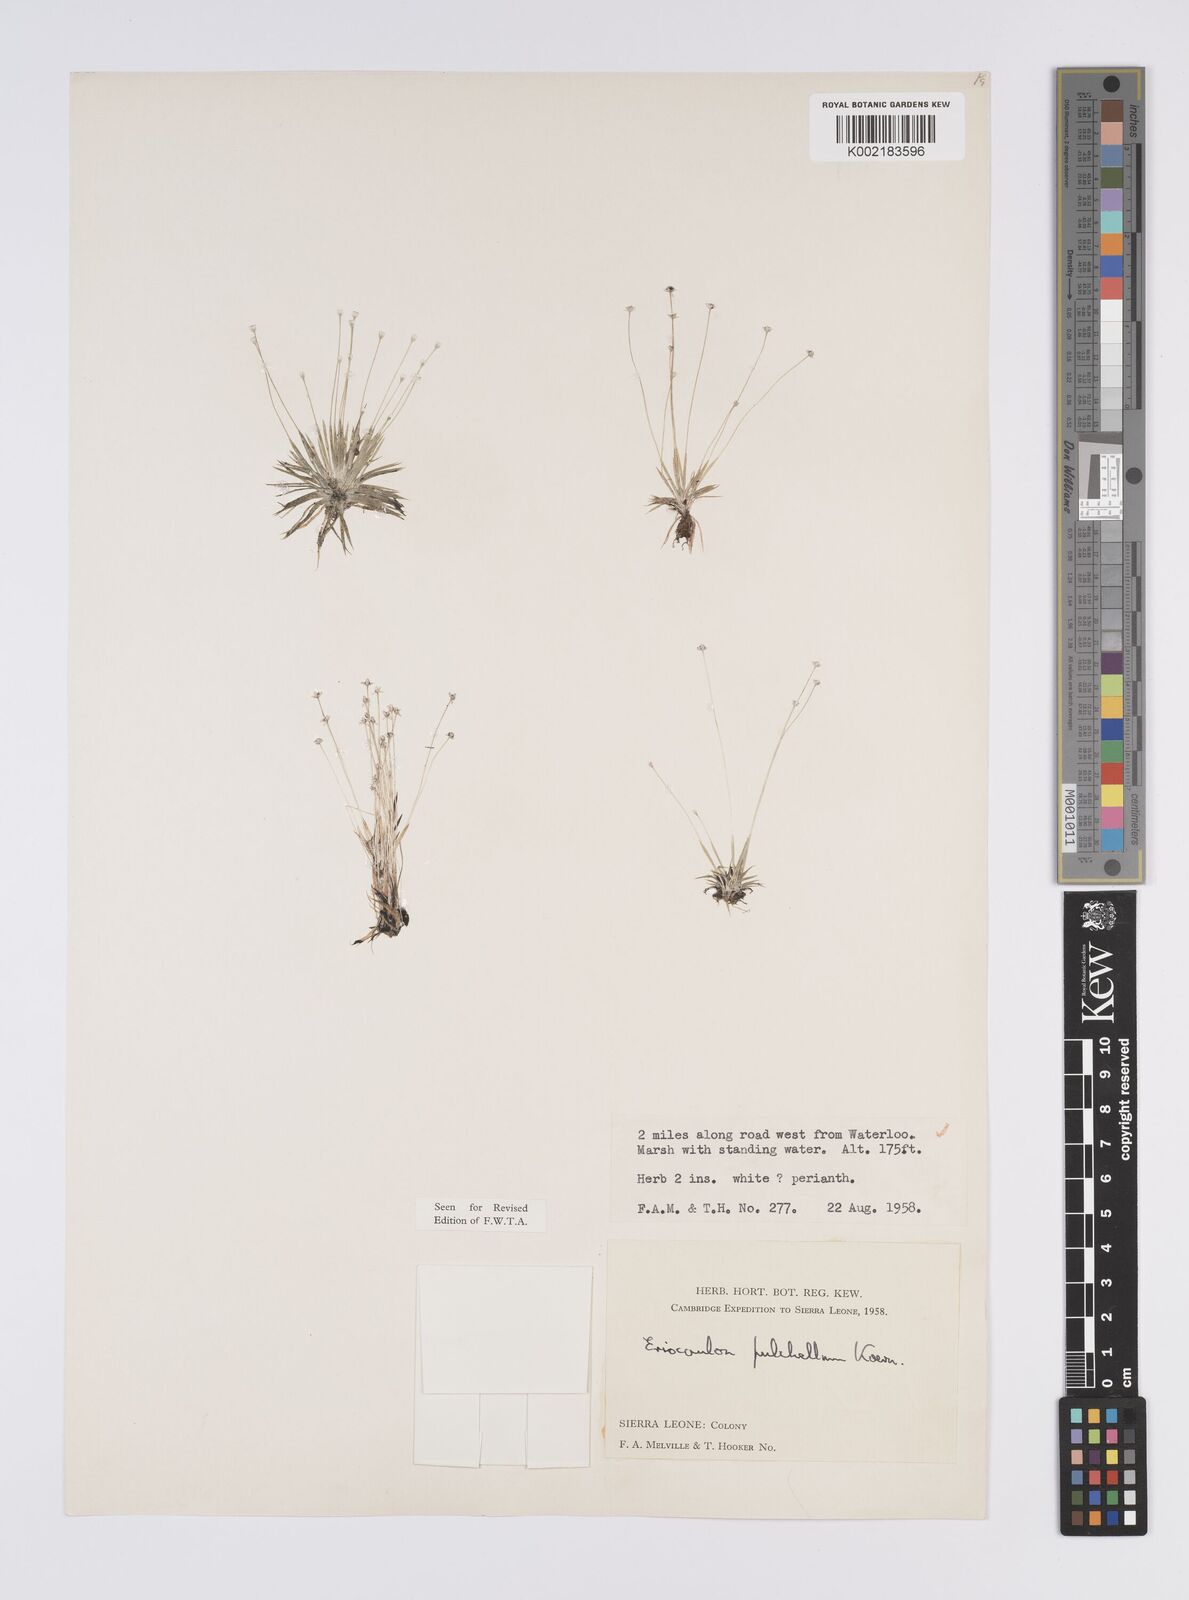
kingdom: Plantae
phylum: Tracheophyta
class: Liliopsida
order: Poales
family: Eriocaulaceae
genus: Eriocaulon
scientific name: Eriocaulon pulchellum
